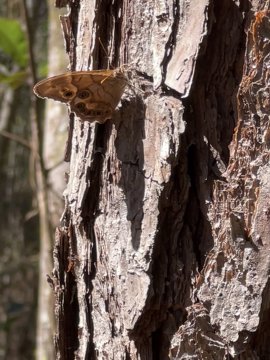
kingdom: Animalia
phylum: Arthropoda
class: Insecta
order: Lepidoptera
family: Nymphalidae
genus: Enodia
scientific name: Enodia portlandia
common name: Southern Pearly Eye
